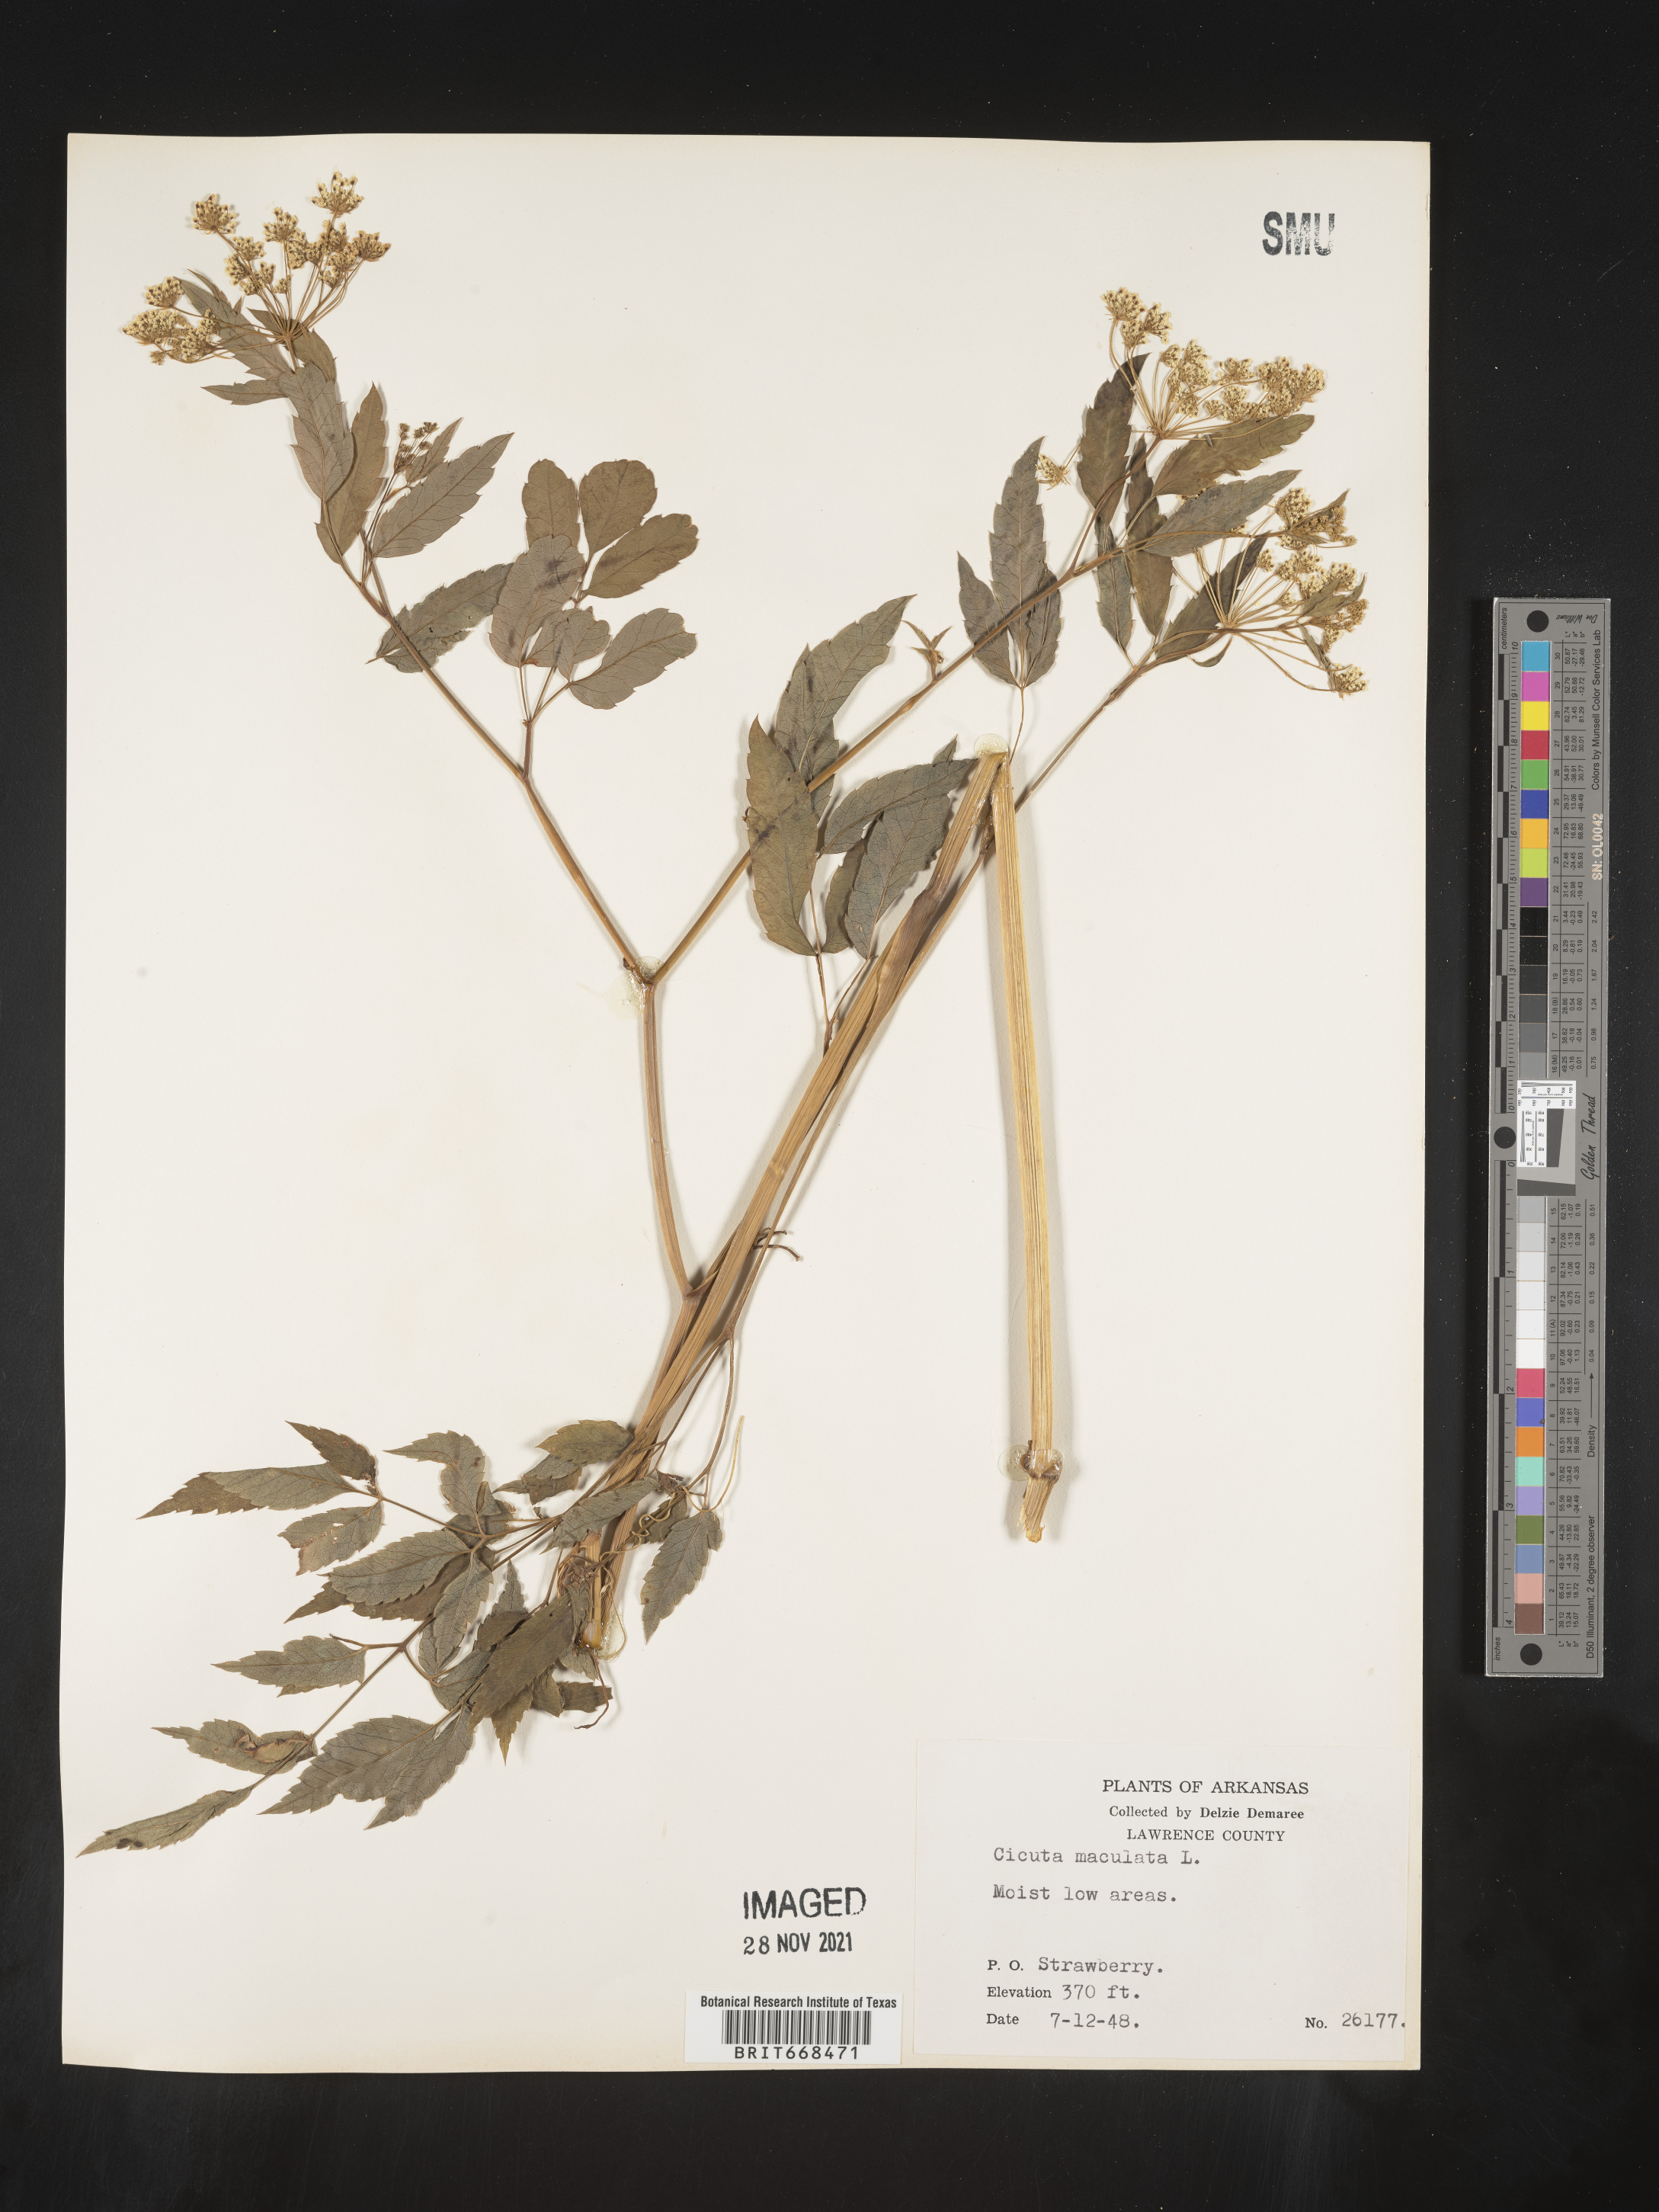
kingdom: Plantae
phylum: Tracheophyta
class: Magnoliopsida
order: Apiales
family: Apiaceae
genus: Cicuta
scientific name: Cicuta maculata
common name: Spotted cowbane
